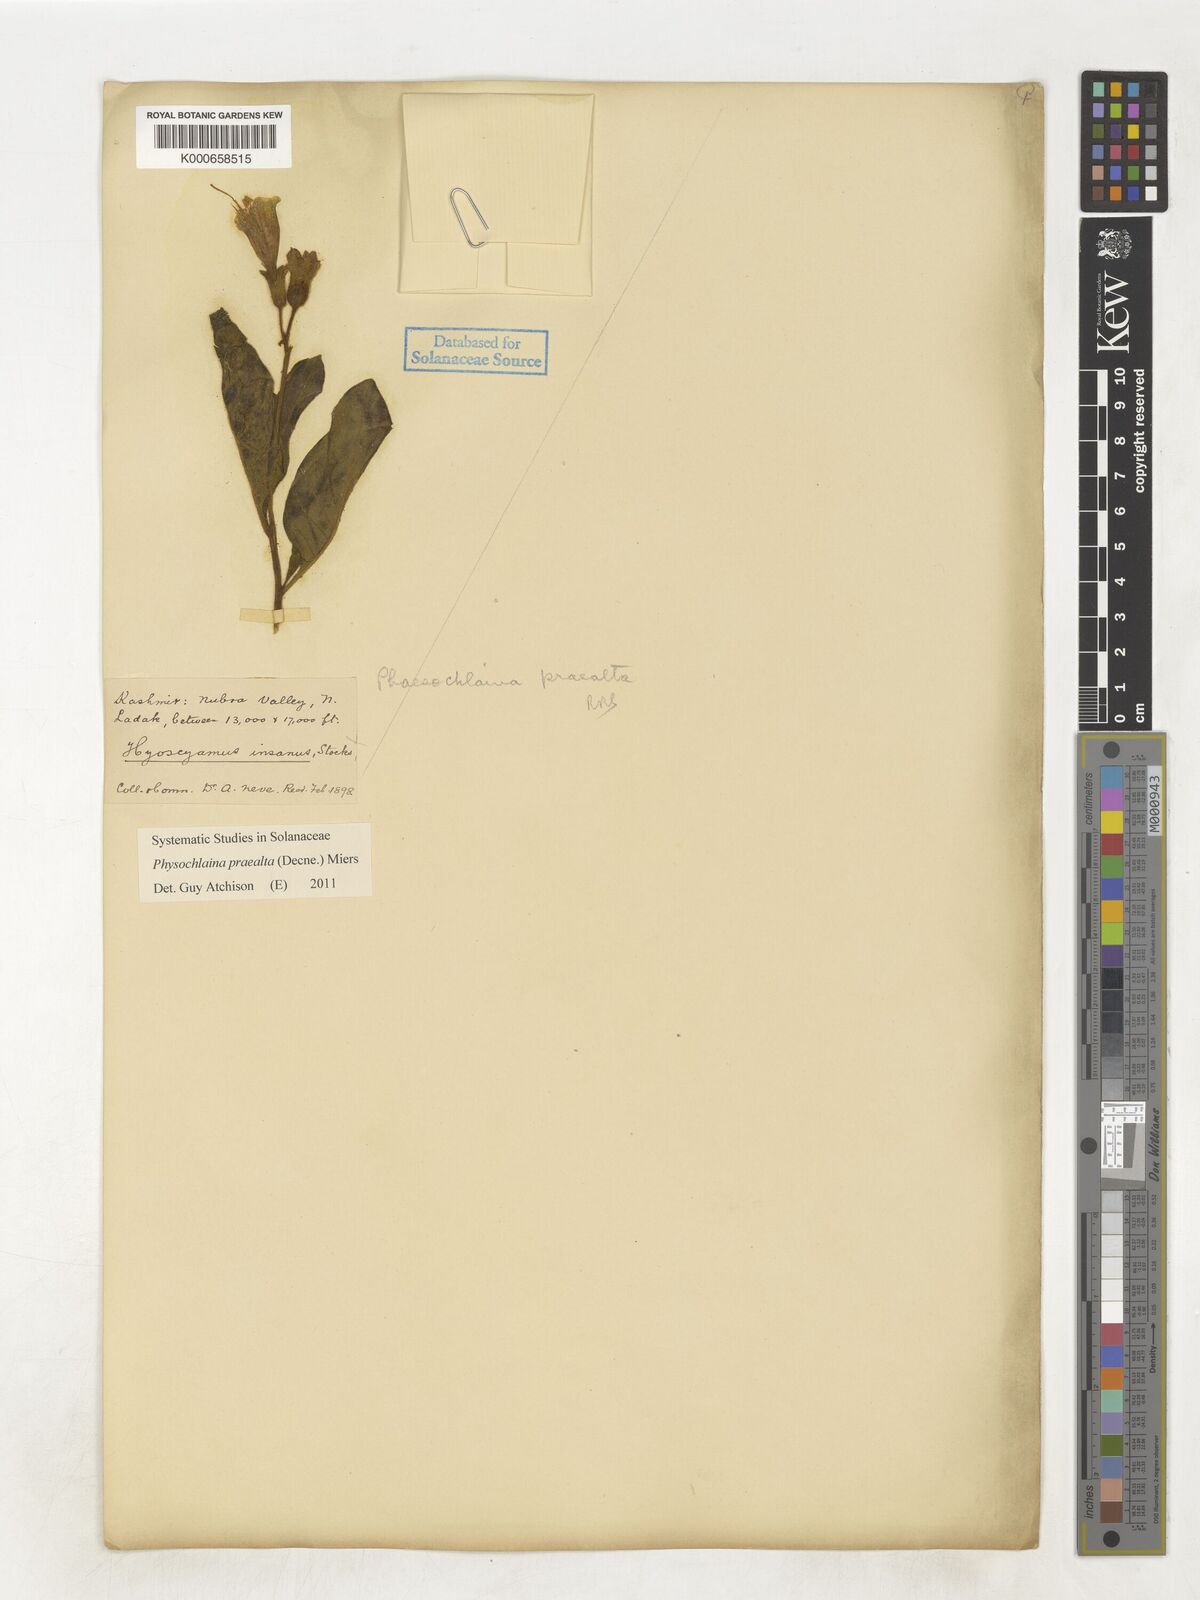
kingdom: Plantae
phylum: Tracheophyta
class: Magnoliopsida
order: Solanales
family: Solanaceae
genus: Physochlaina
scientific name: Physochlaina praealta
